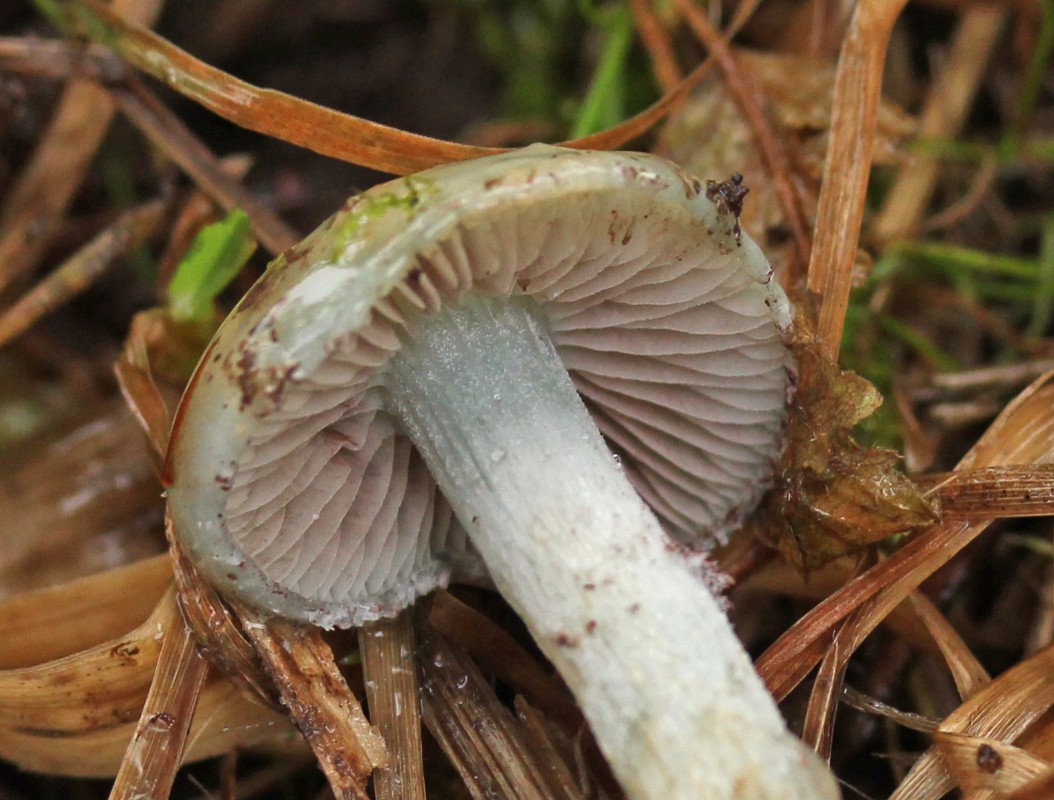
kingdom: Fungi
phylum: Basidiomycota
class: Agaricomycetes
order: Agaricales
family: Strophariaceae
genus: Stropharia
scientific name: Stropharia cyanea
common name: blågrøn bredblad
